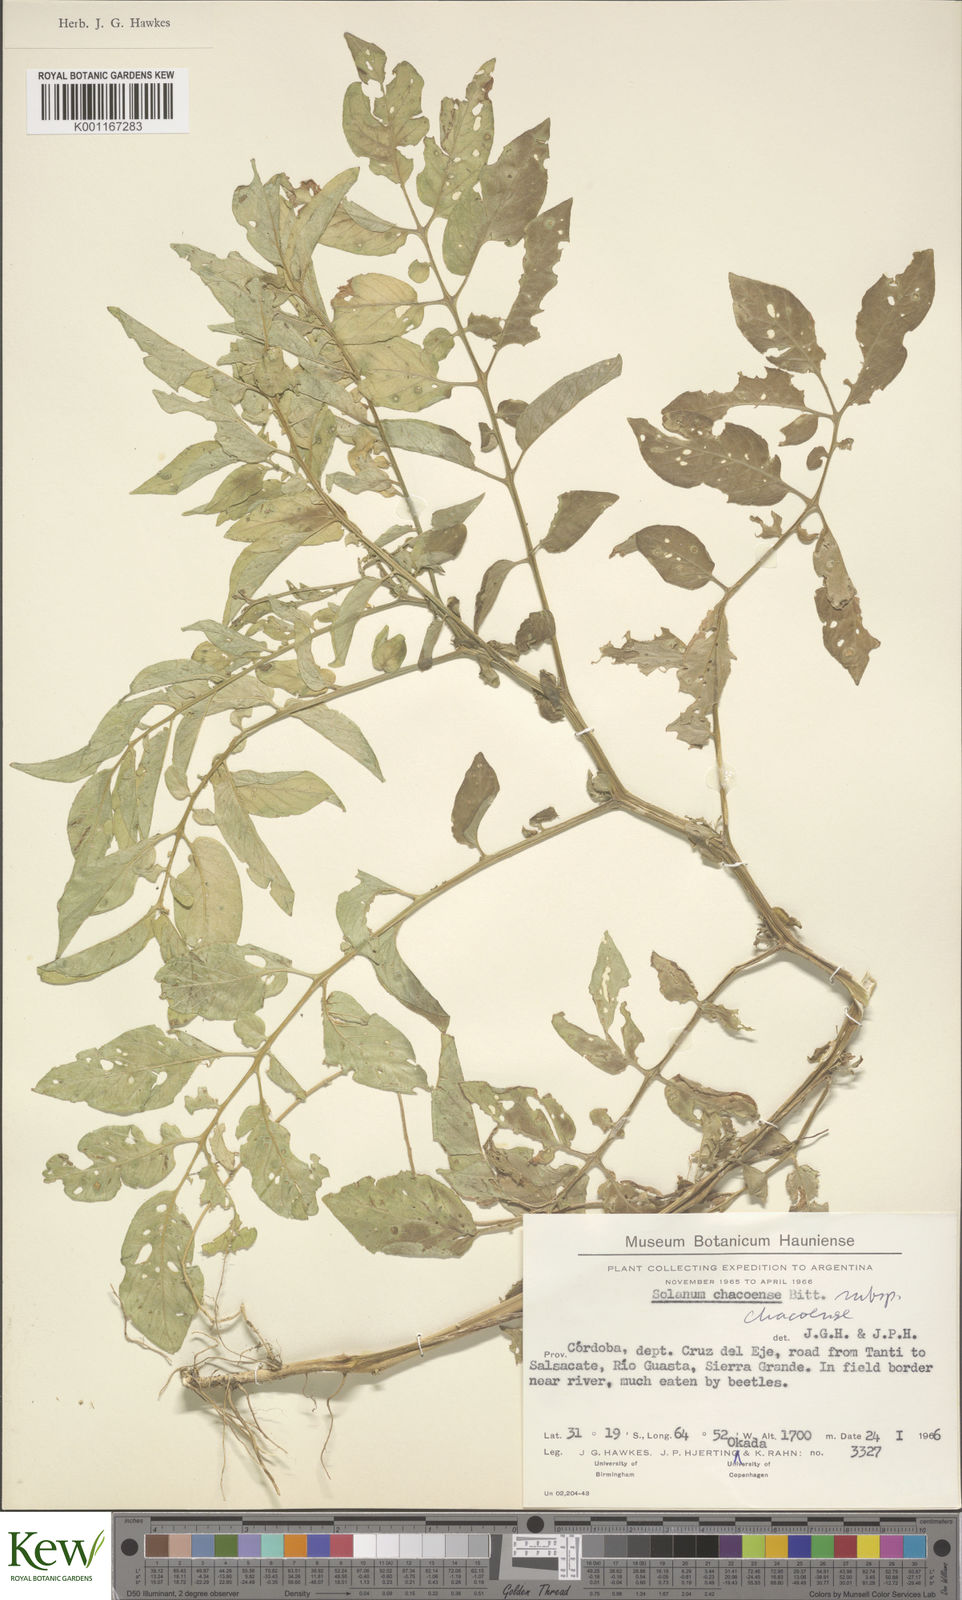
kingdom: Plantae
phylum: Tracheophyta
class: Magnoliopsida
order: Solanales
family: Solanaceae
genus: Solanum
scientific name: Solanum chacoense
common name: Chaco potato
